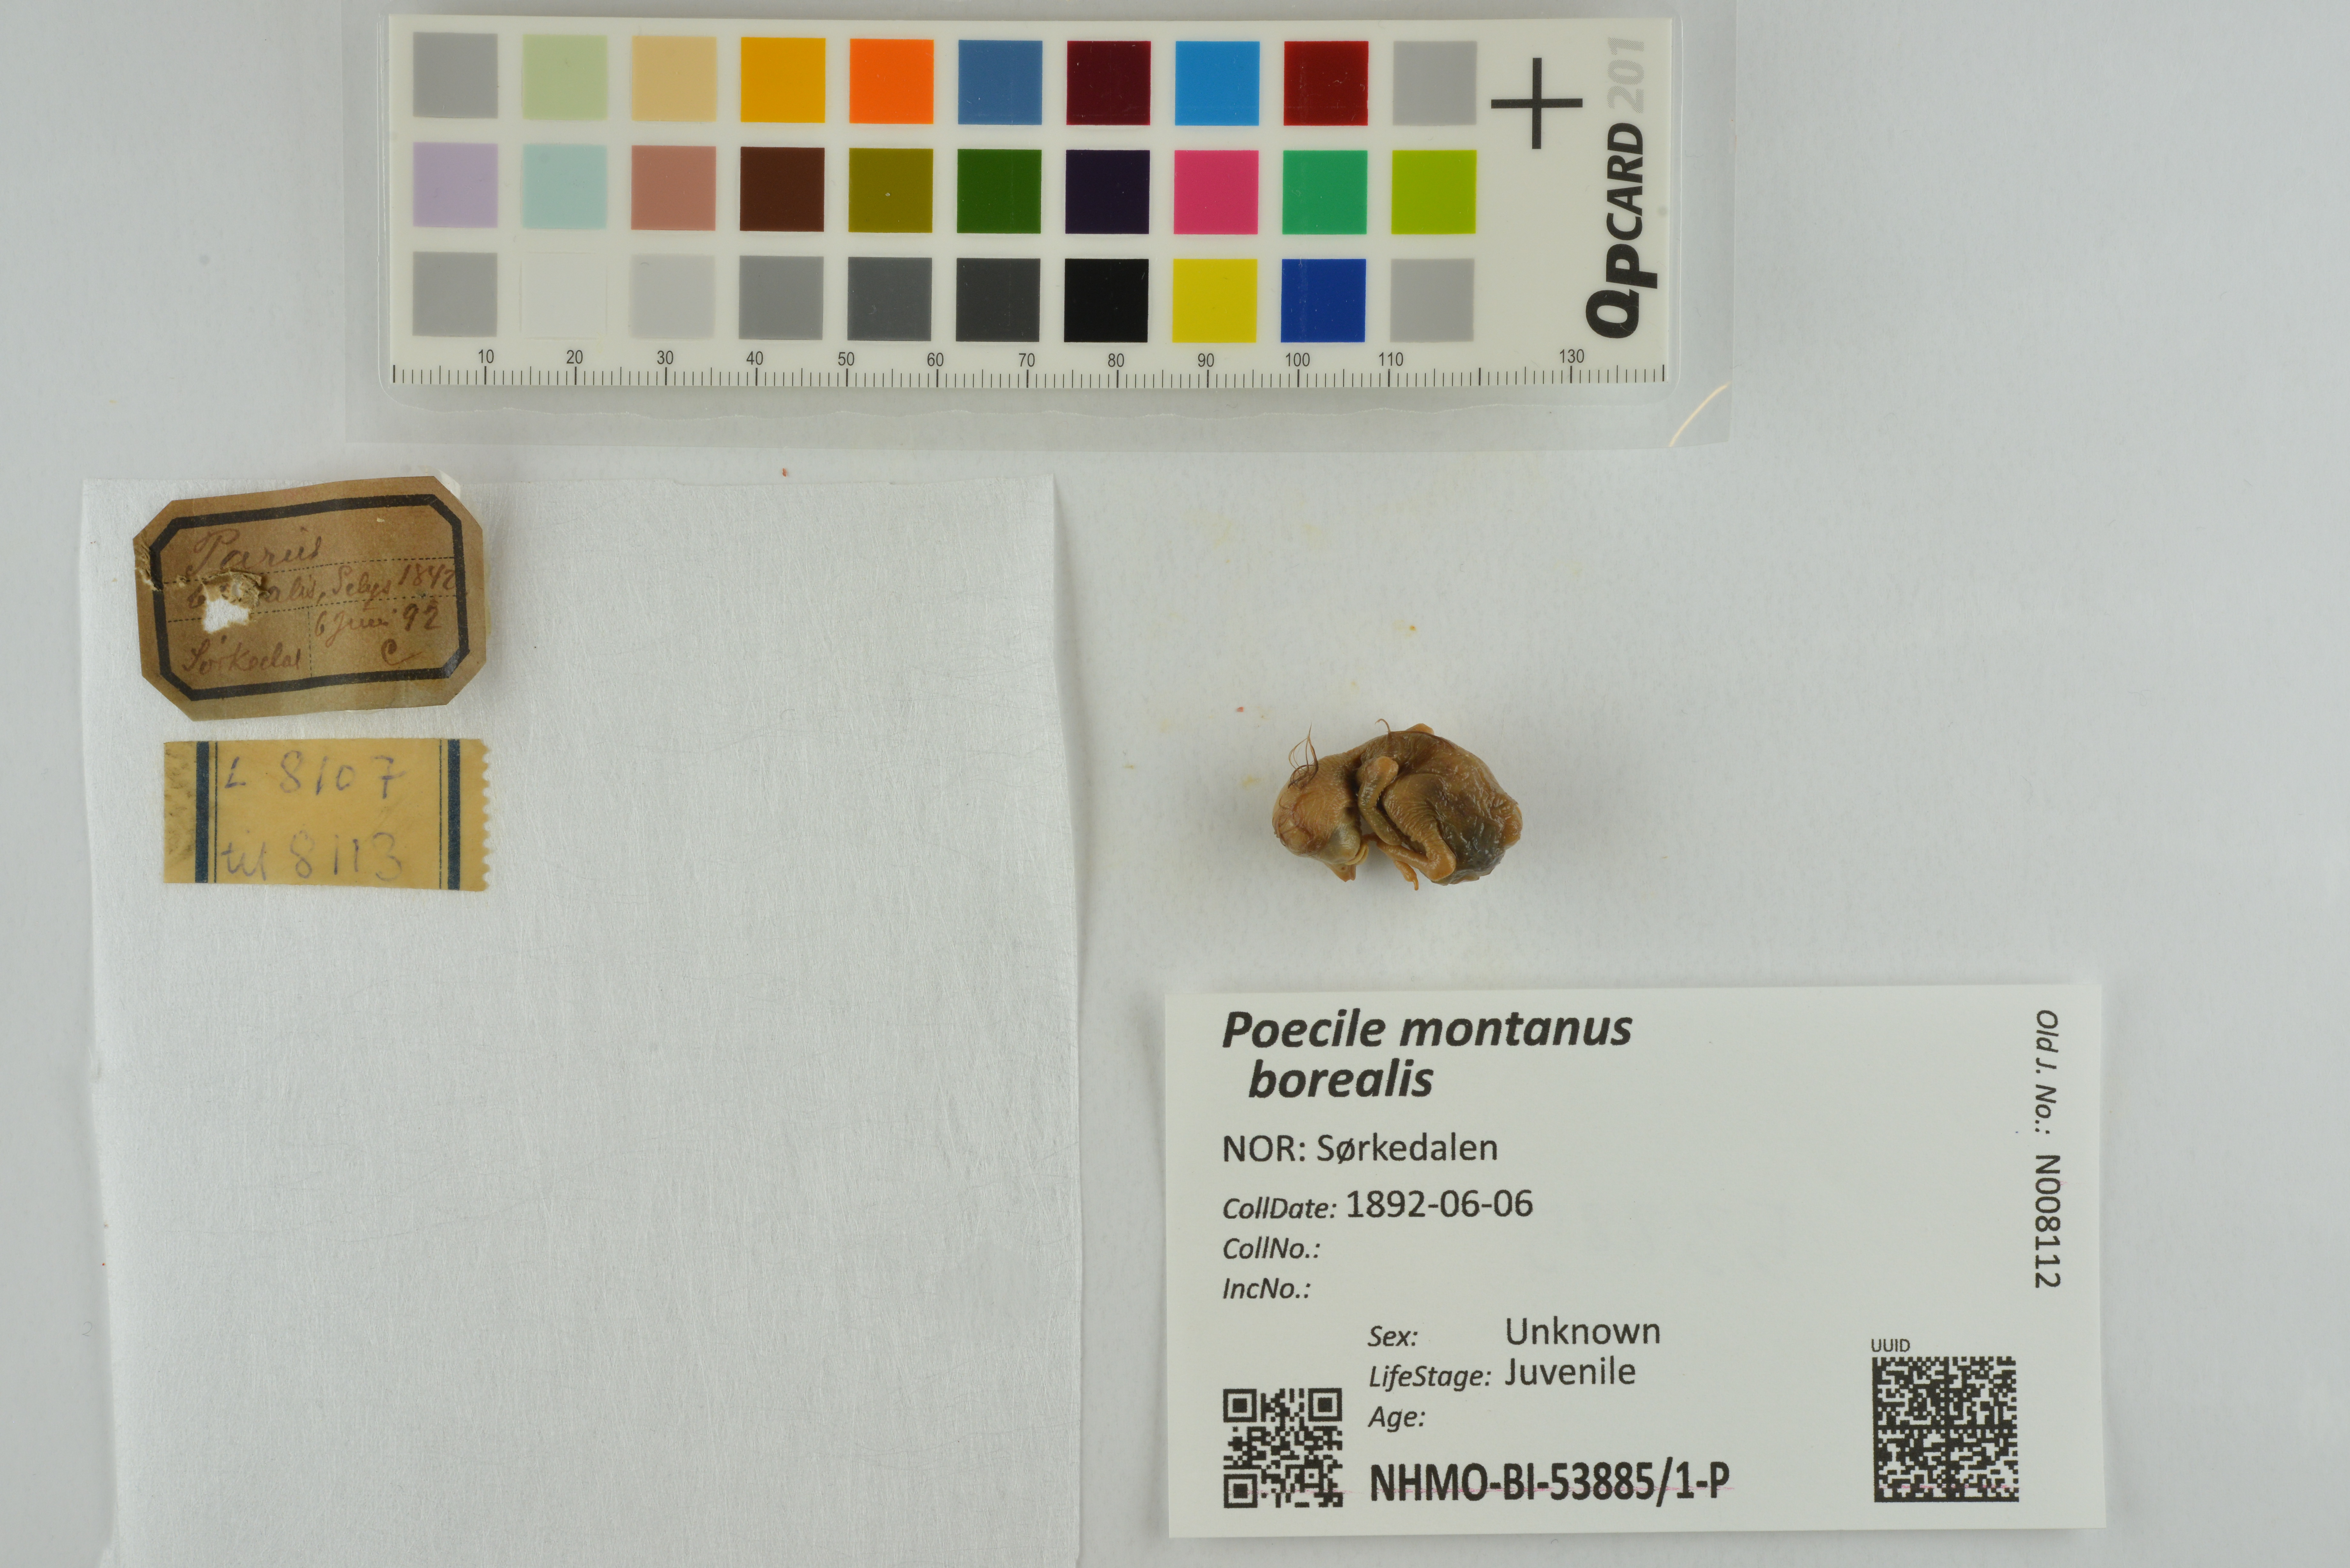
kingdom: Animalia
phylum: Chordata
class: Aves
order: Passeriformes
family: Paridae
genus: Poecile
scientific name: Poecile montanus
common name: Willow tit
